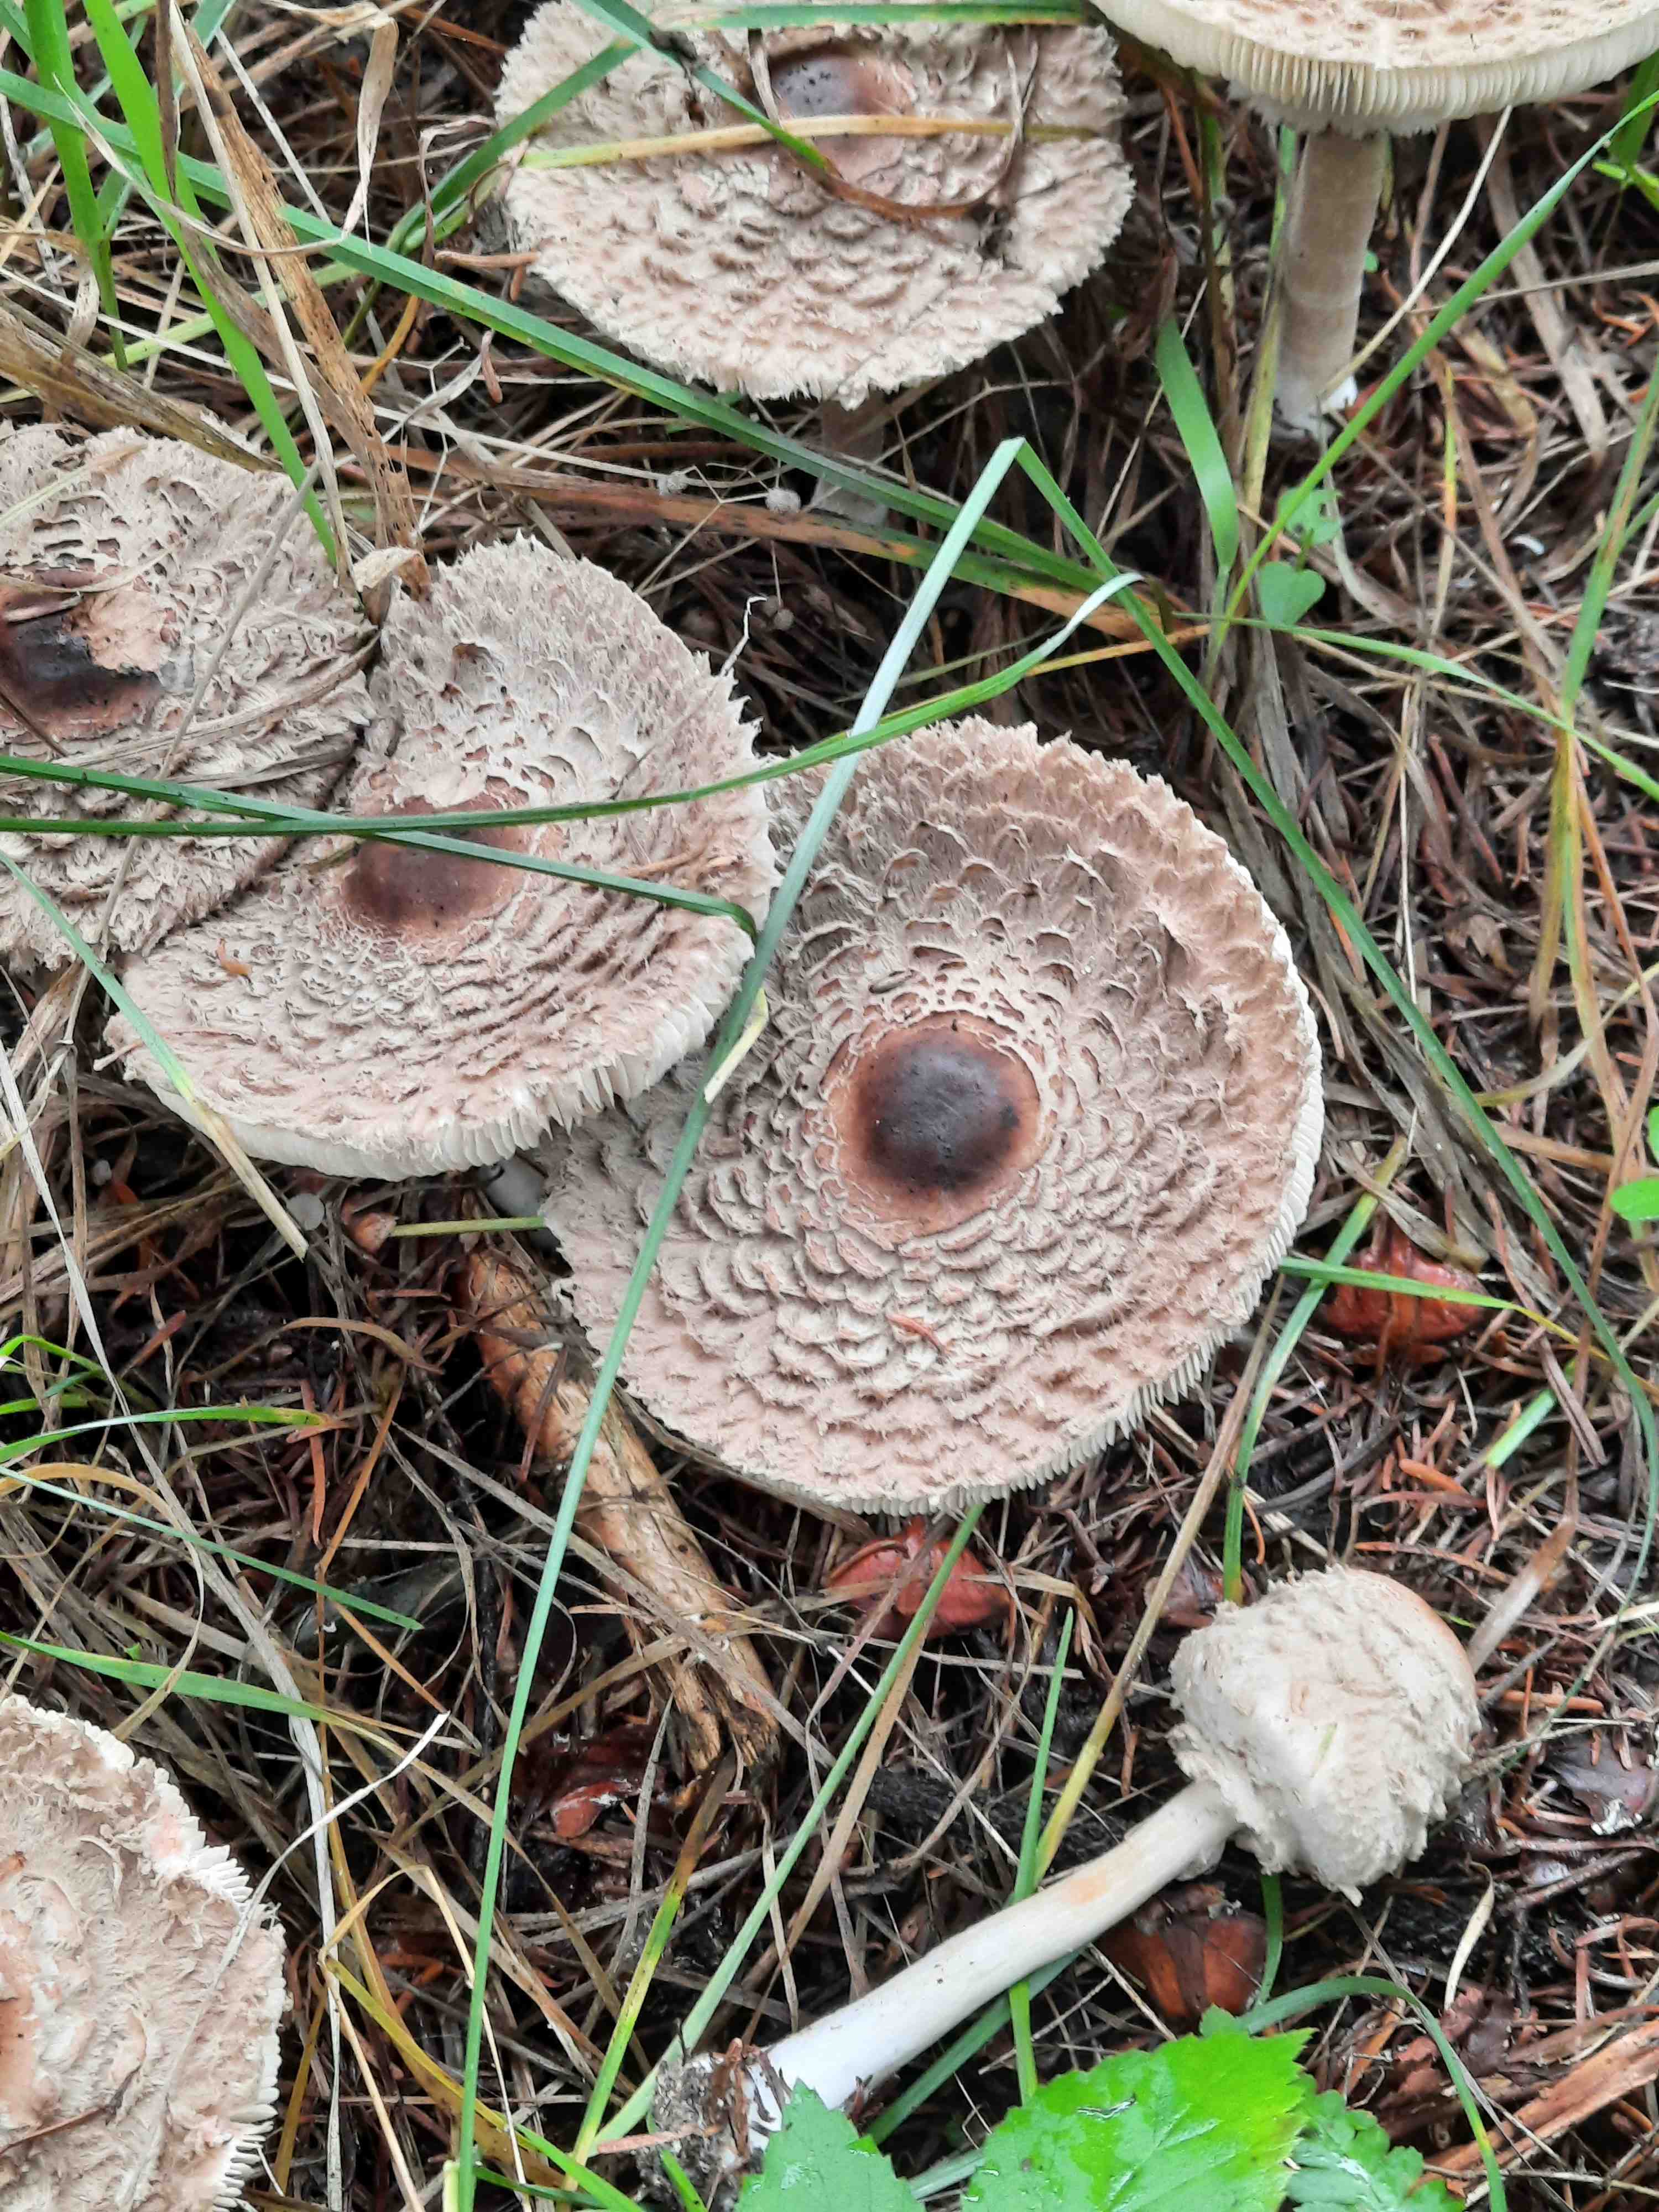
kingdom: Fungi
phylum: Basidiomycota
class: Agaricomycetes
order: Agaricales
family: Agaricaceae
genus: Chlorophyllum
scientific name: Chlorophyllum olivieri
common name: almindelig rabarberhat
